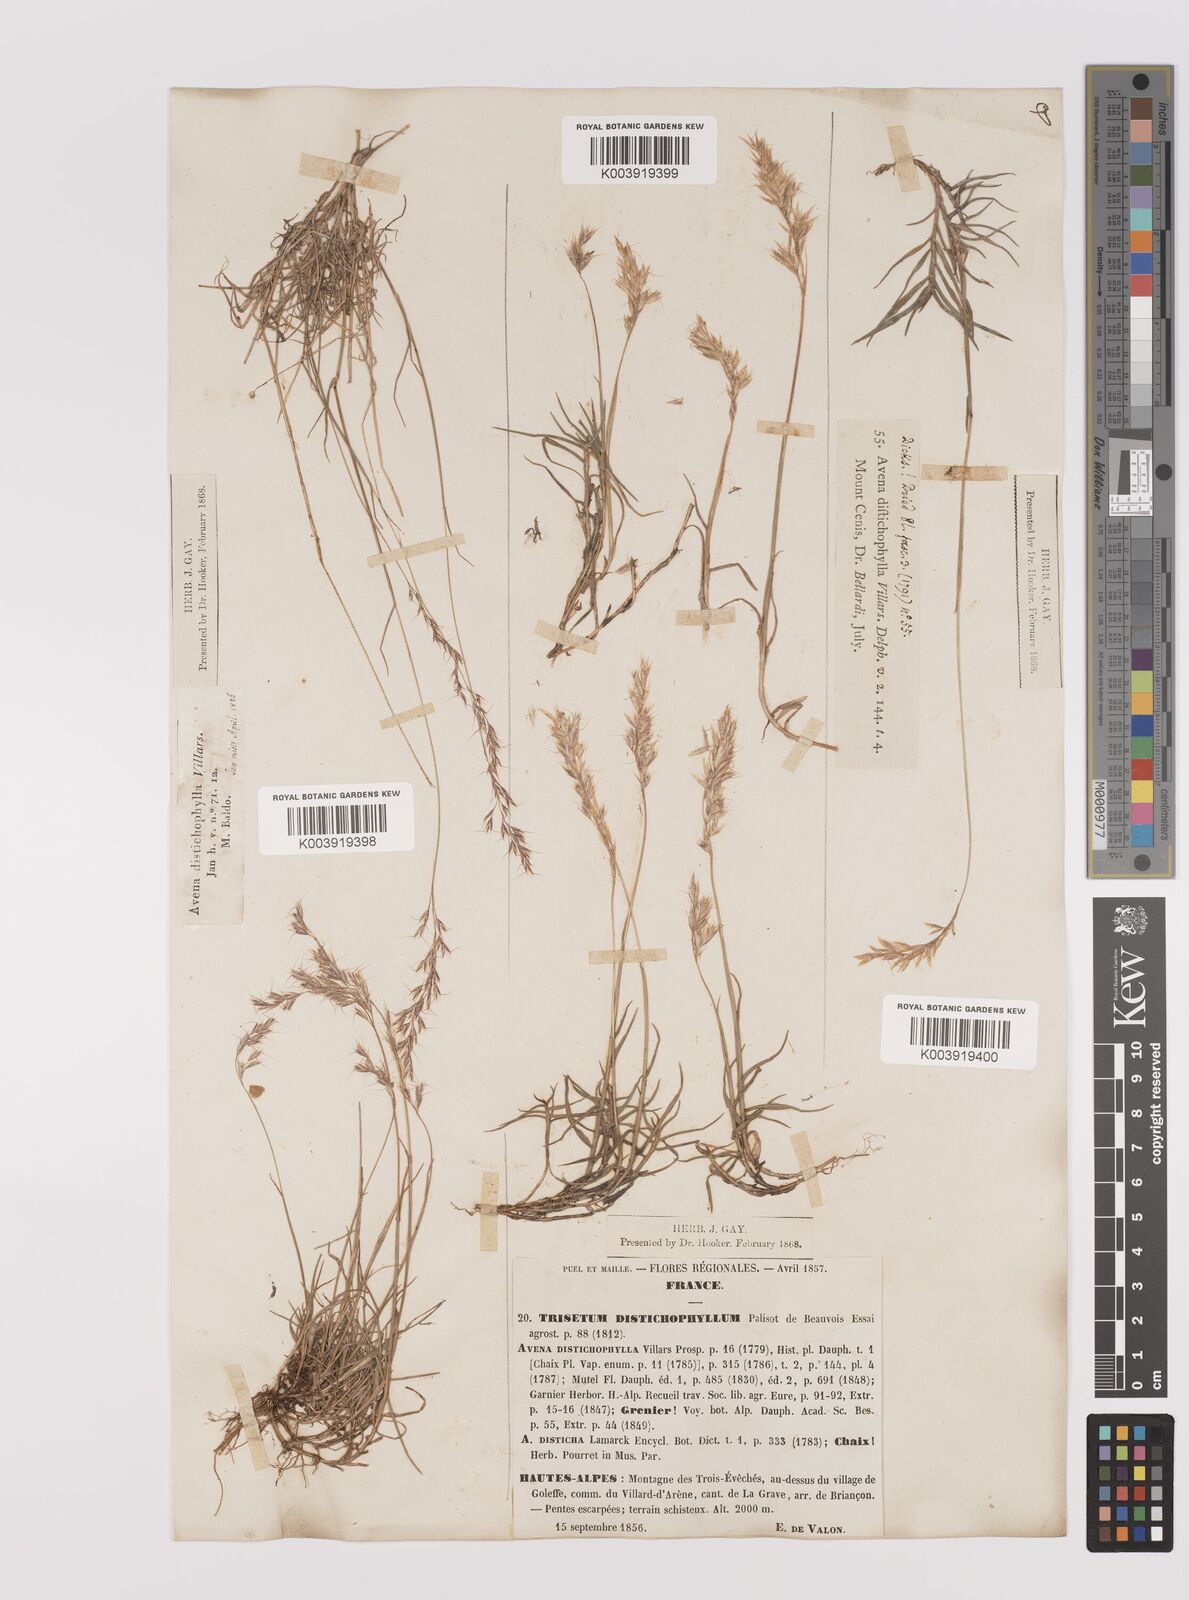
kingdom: Plantae
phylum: Tracheophyta
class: Liliopsida
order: Poales
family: Poaceae
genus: Acrospelion
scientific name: Acrospelion distichophyllum
